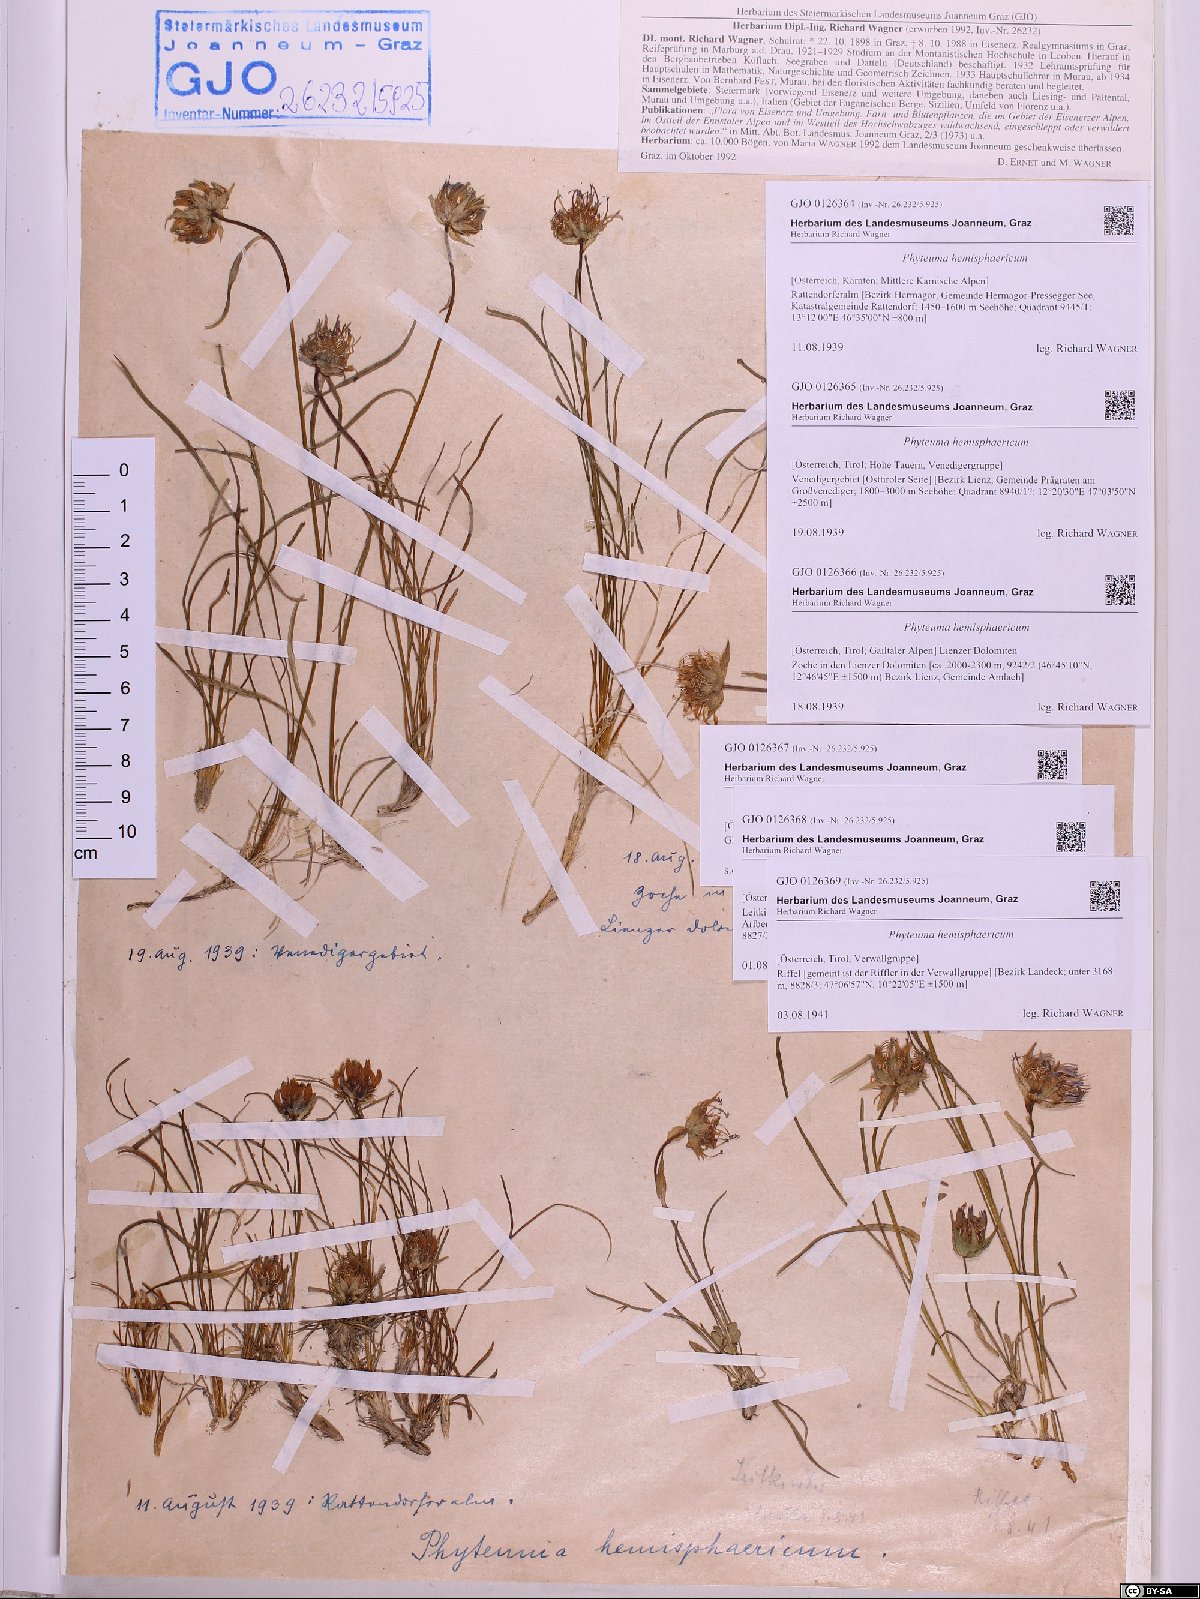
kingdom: Plantae
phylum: Tracheophyta
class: Magnoliopsida
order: Asterales
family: Campanulaceae
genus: Phyteuma
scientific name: Phyteuma hemisphaericum
